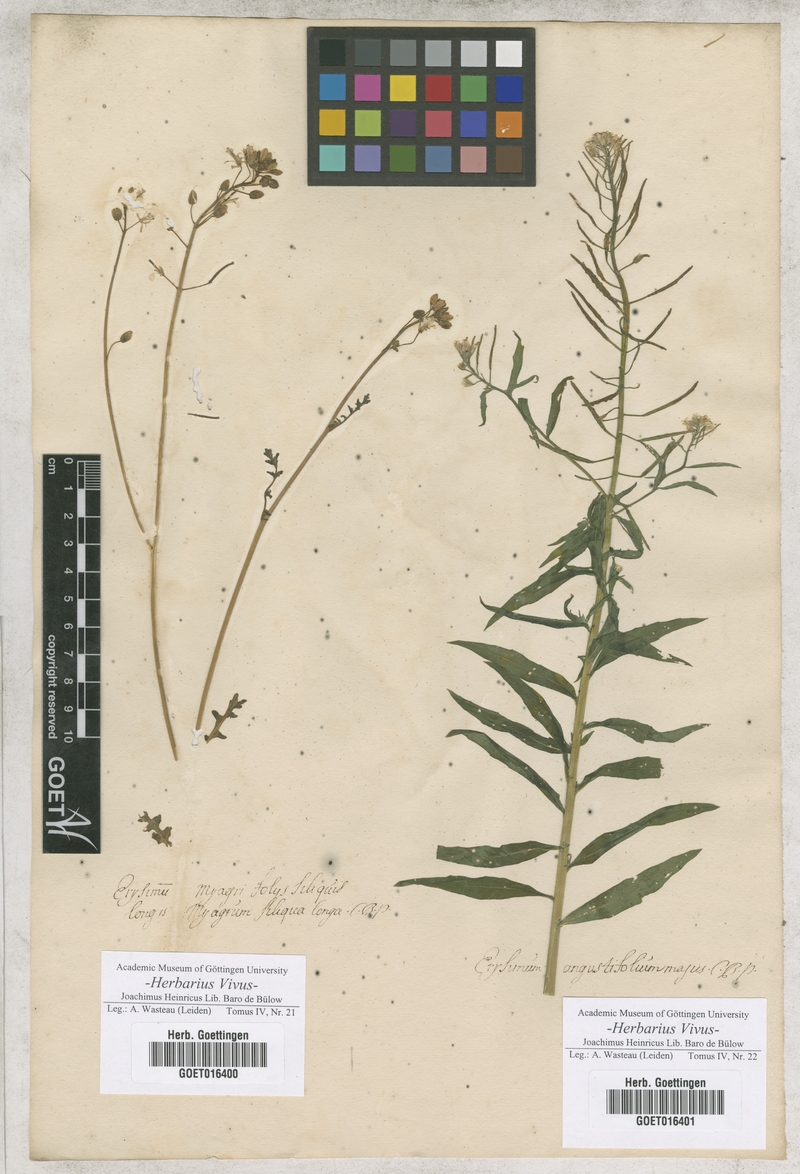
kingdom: Plantae
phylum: Tracheophyta
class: Magnoliopsida
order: Brassicales
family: Brassicaceae
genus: Erysimum
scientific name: Erysimum cheiranthoides
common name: Treacle mustard
